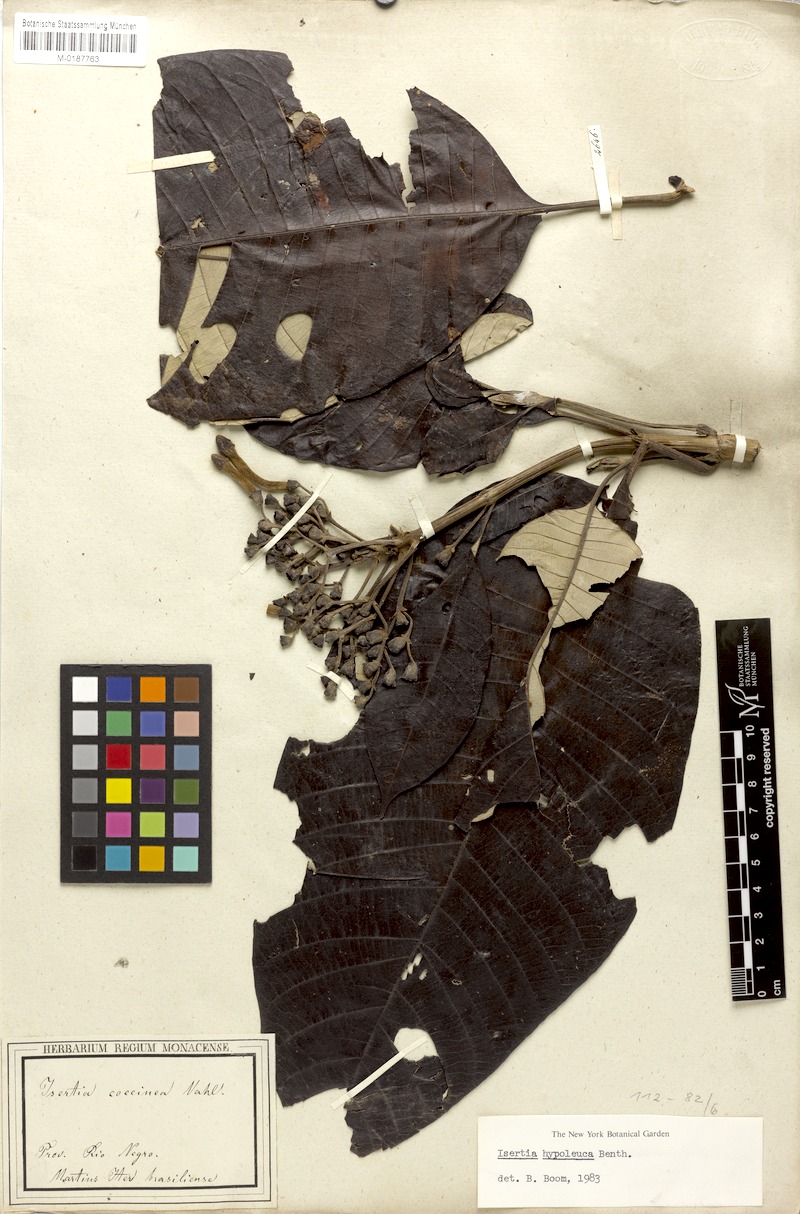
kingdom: Plantae
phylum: Tracheophyta
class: Magnoliopsida
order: Gentianales
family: Rubiaceae
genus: Isertia
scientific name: Isertia hypoleuca
